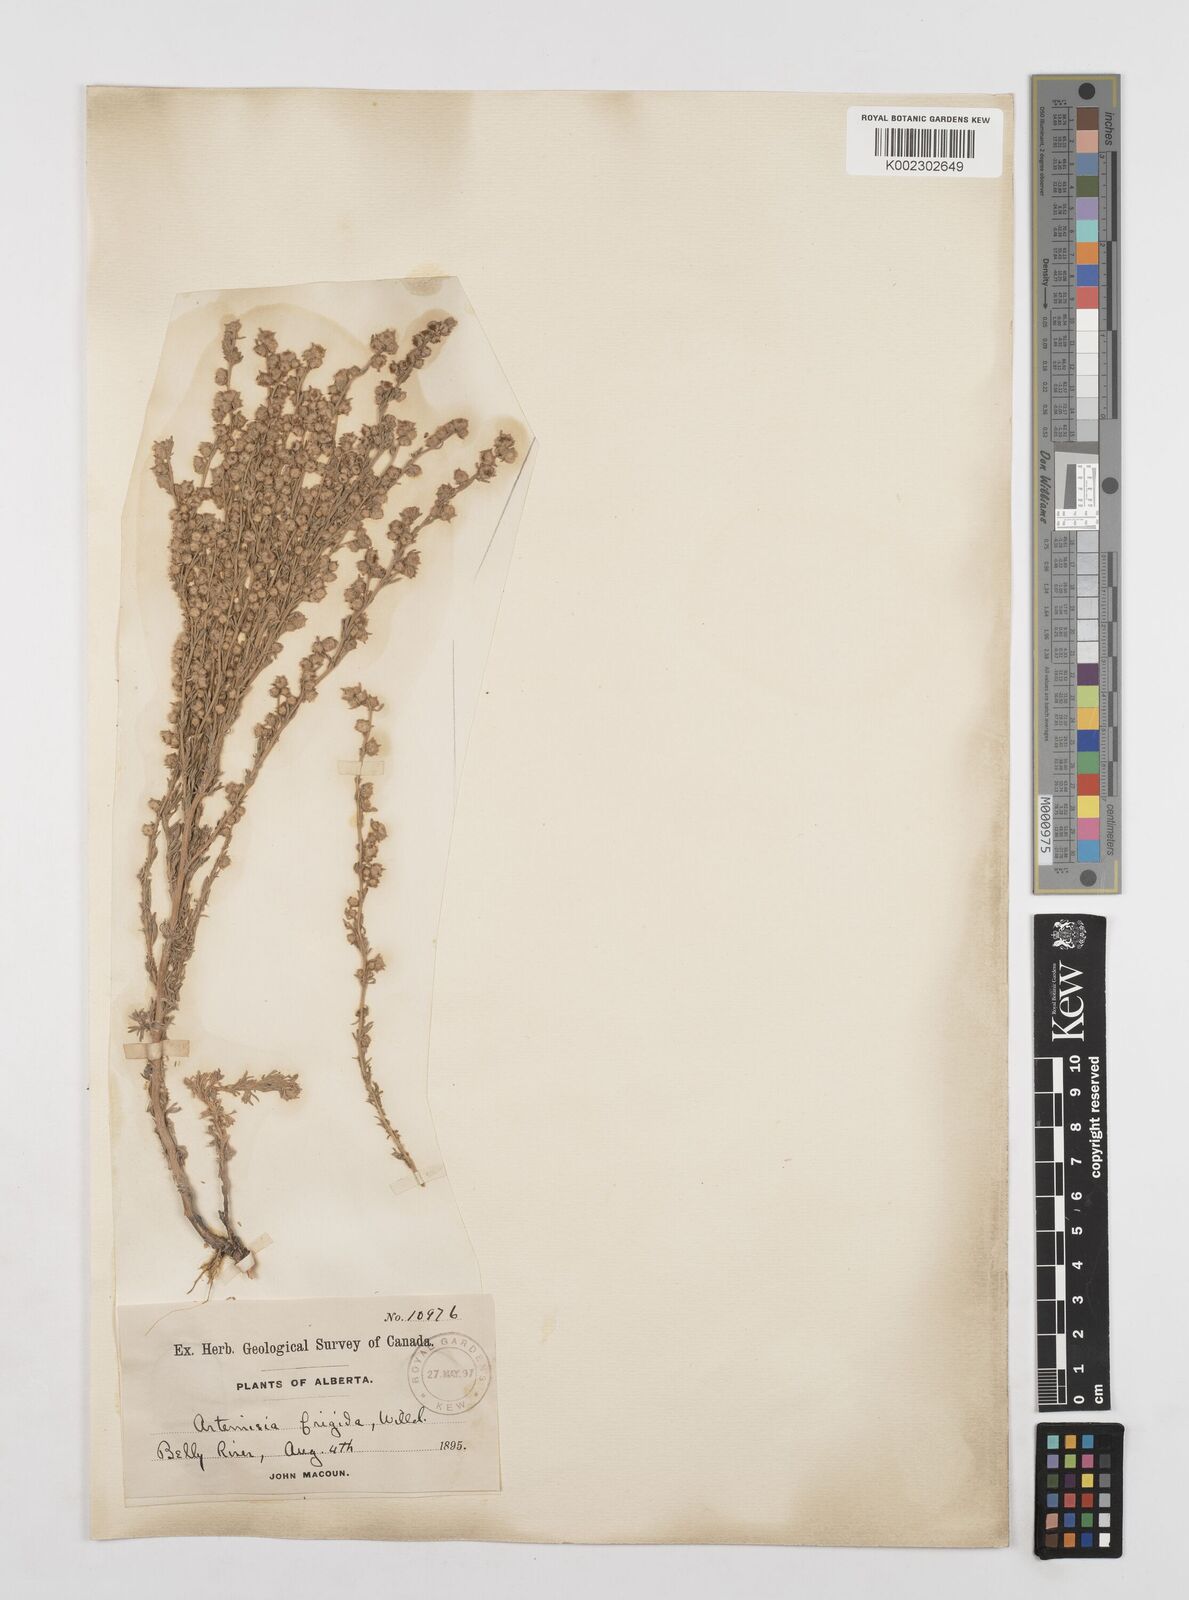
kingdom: Plantae
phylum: Tracheophyta
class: Magnoliopsida
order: Asterales
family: Asteraceae
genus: Artemisia
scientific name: Artemisia frigida
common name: Prairie sagewort
